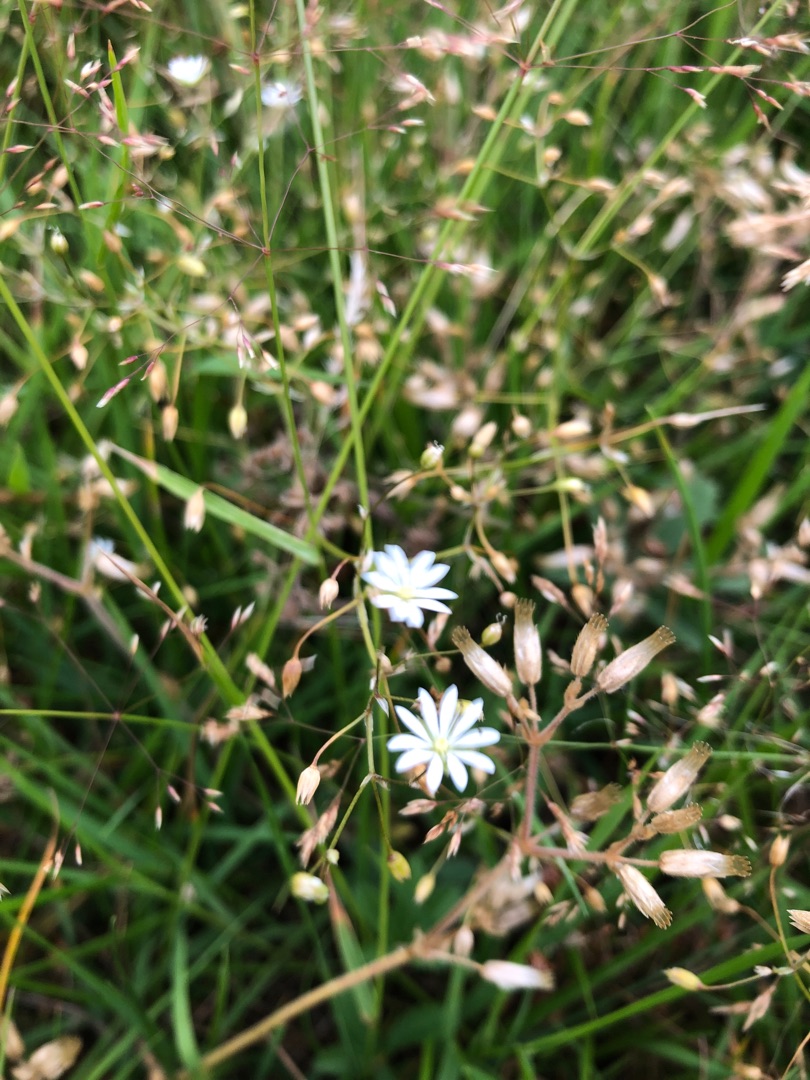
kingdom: Plantae
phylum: Tracheophyta
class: Magnoliopsida
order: Caryophyllales
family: Caryophyllaceae
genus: Stellaria
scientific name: Stellaria graminea
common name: Græsbladet fladstjerne
